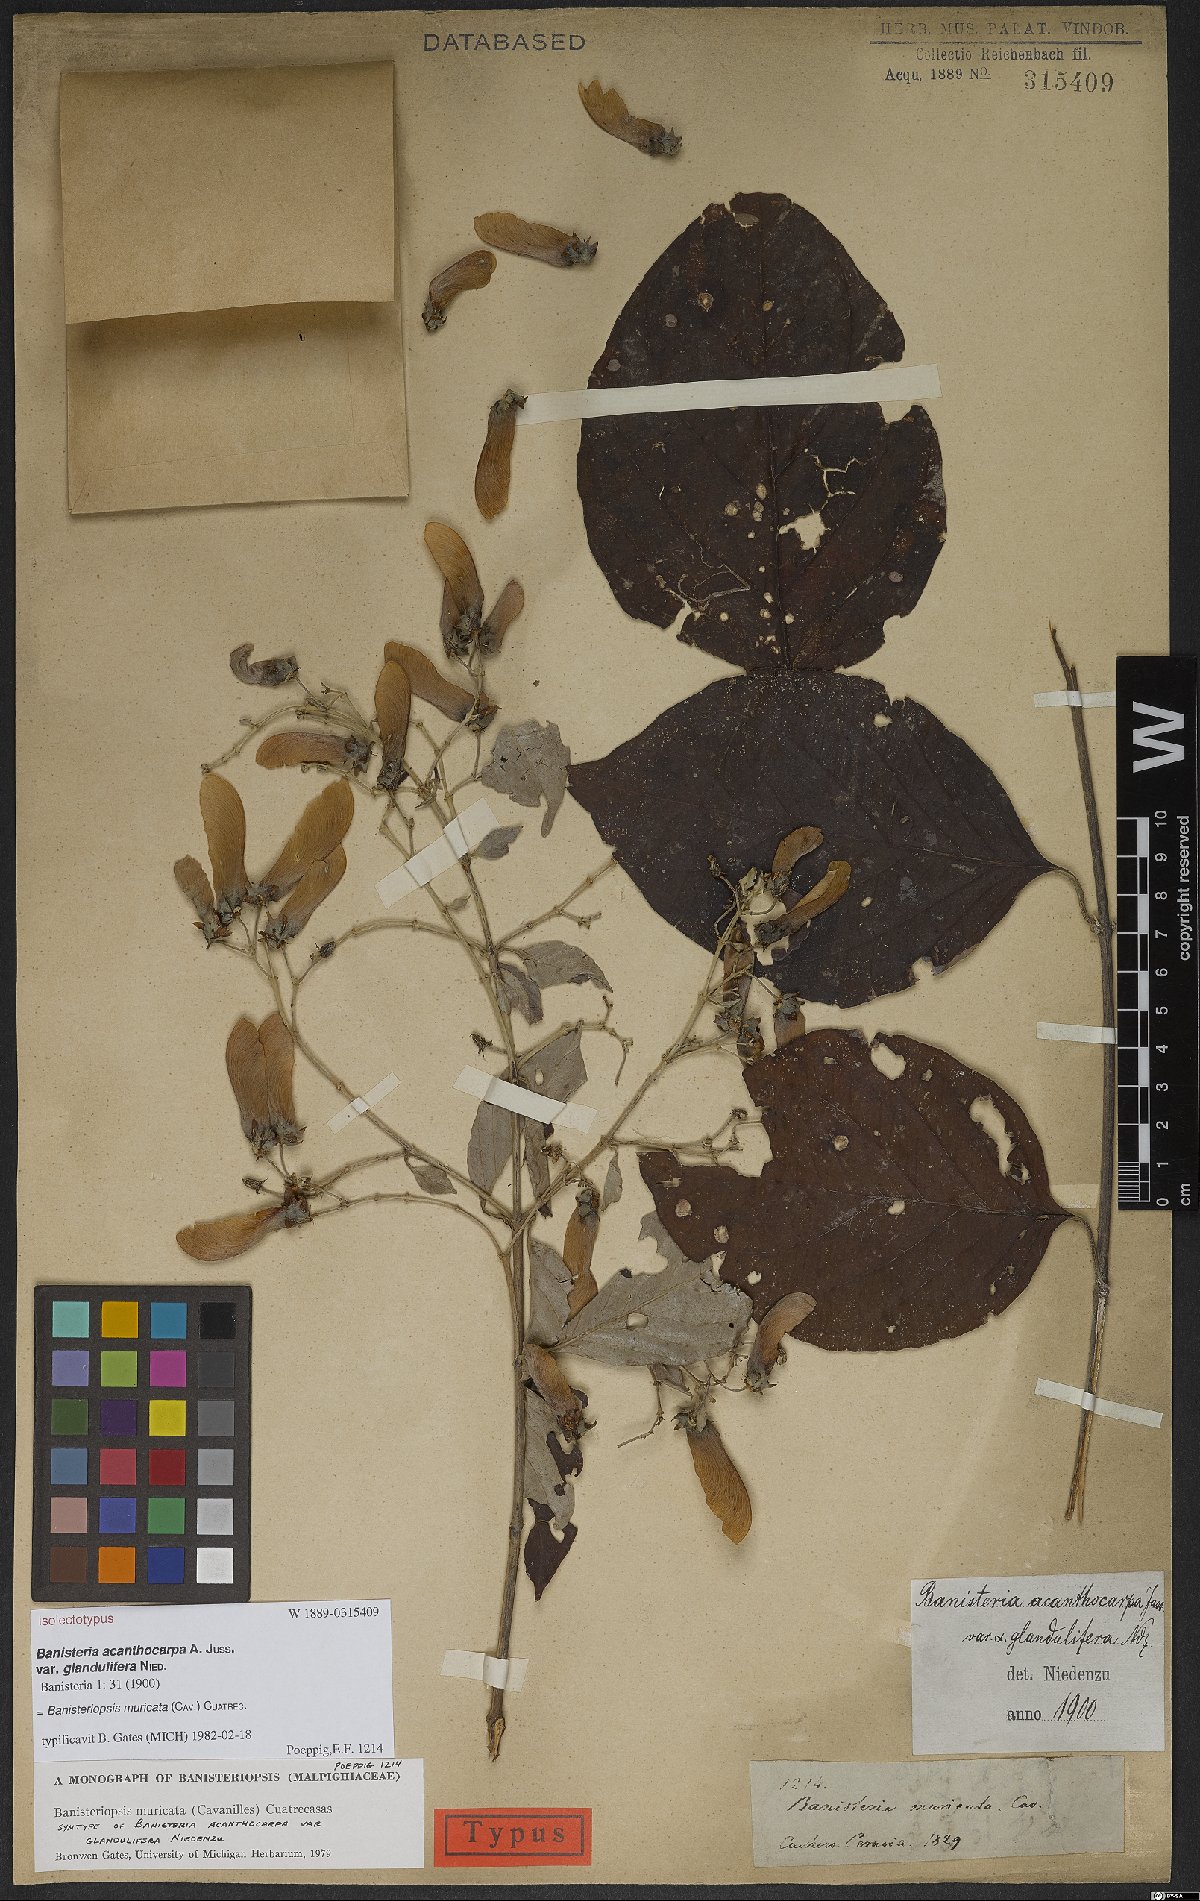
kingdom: Plantae
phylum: Tracheophyta
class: Magnoliopsida
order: Malpighiales
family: Malpighiaceae
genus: Banisteriopsis
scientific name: Banisteriopsis muricata
